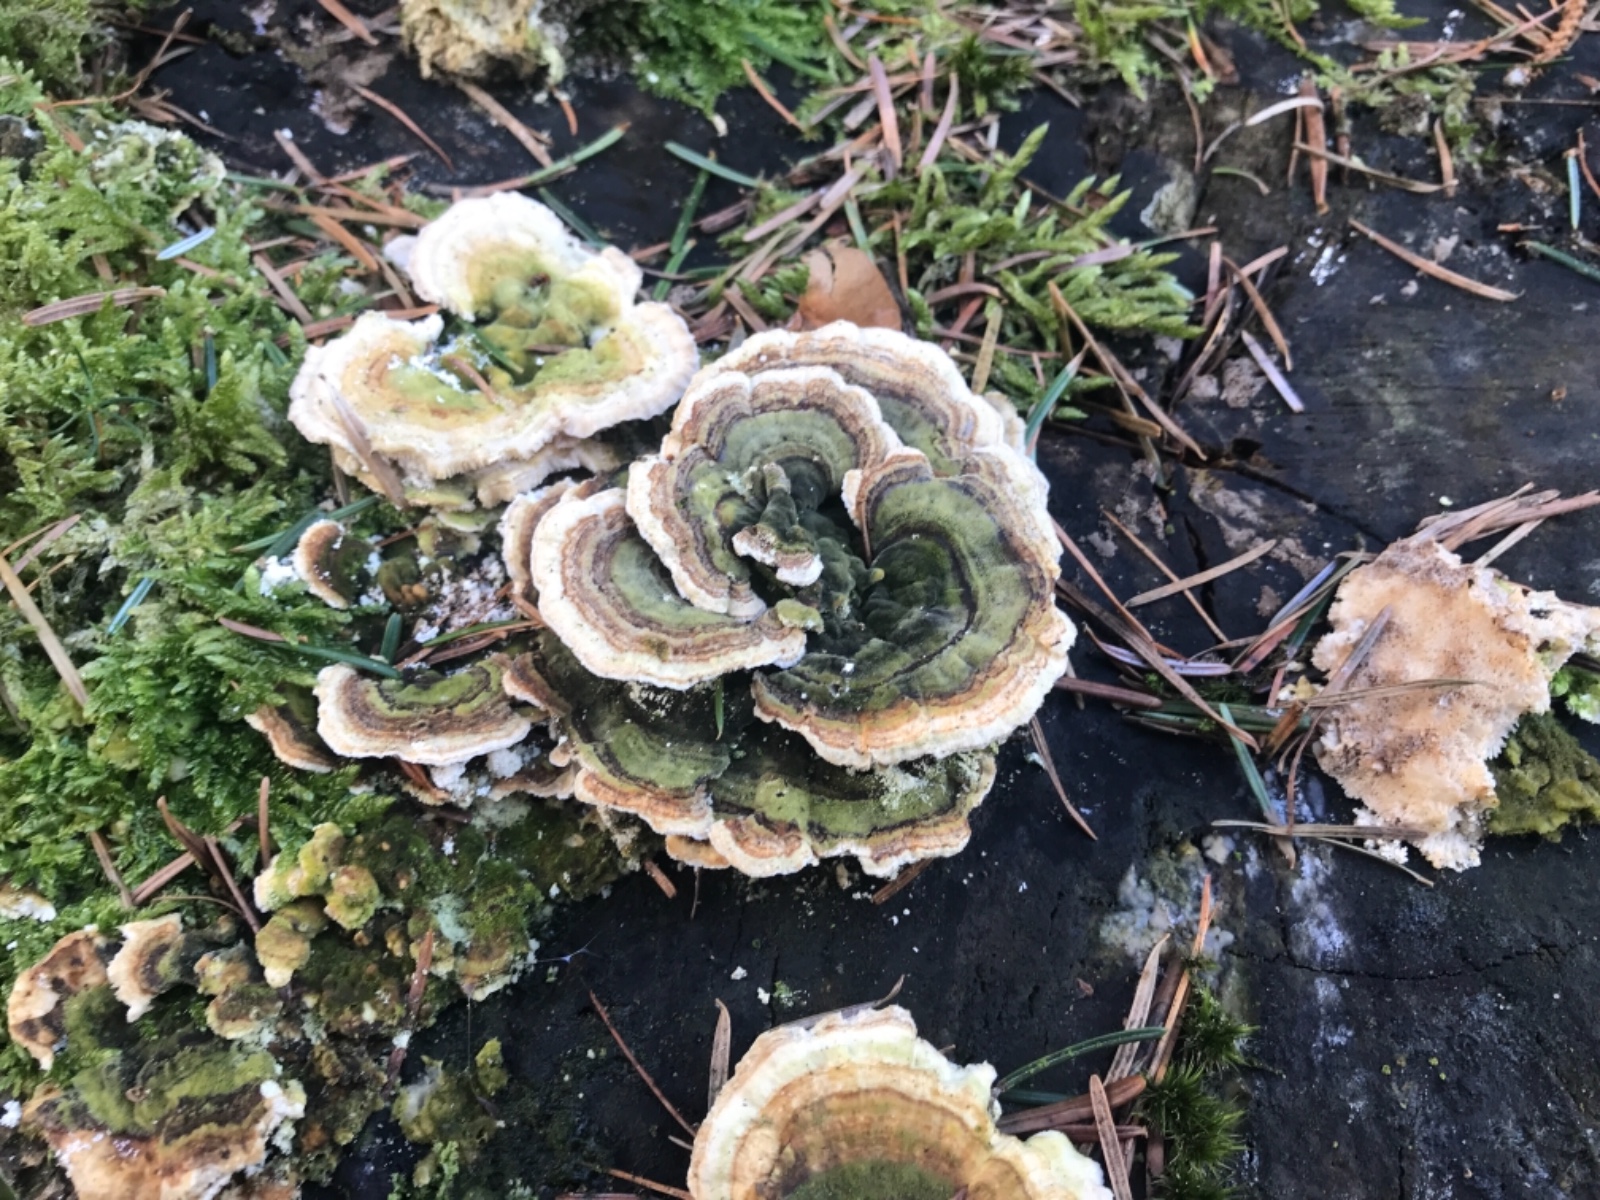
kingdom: Fungi
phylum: Basidiomycota
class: Agaricomycetes
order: Polyporales
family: Polyporaceae
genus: Trametes
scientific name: Trametes versicolor
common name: broget læderporesvamp
